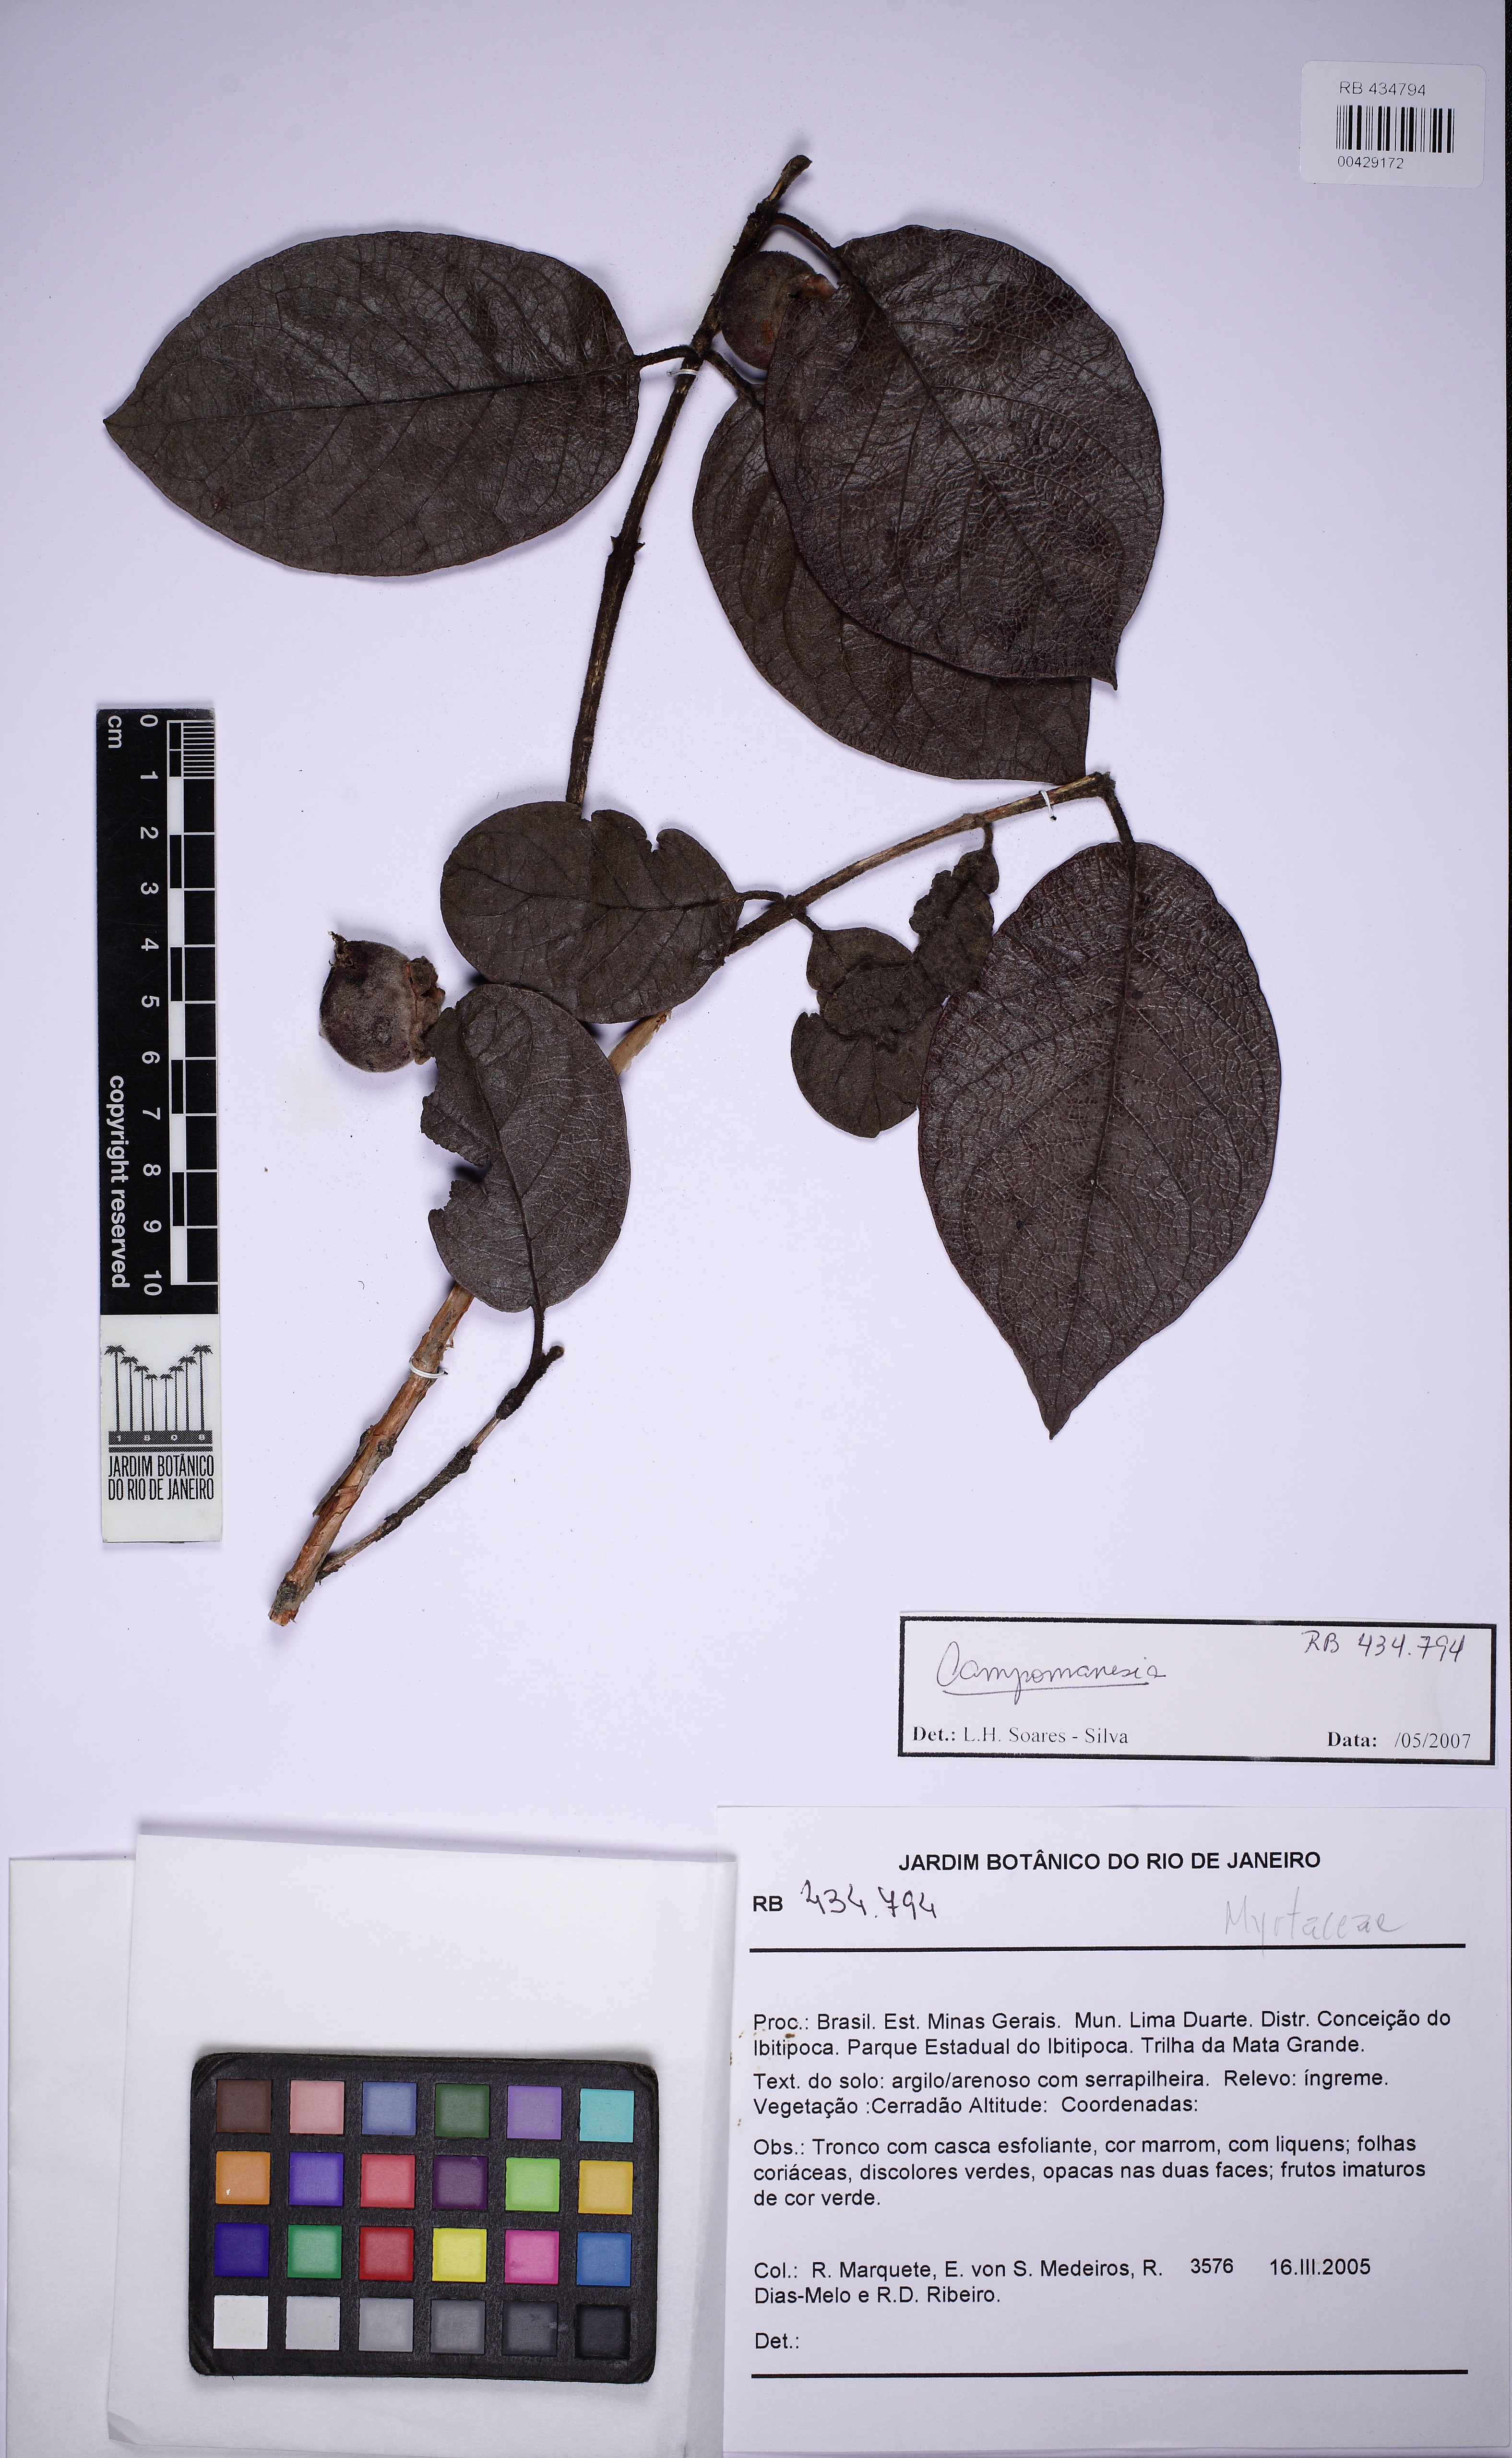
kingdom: Plantae
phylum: Tracheophyta
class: Magnoliopsida
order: Myrtales
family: Myrtaceae
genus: Campomanesia
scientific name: Campomanesia rufa
